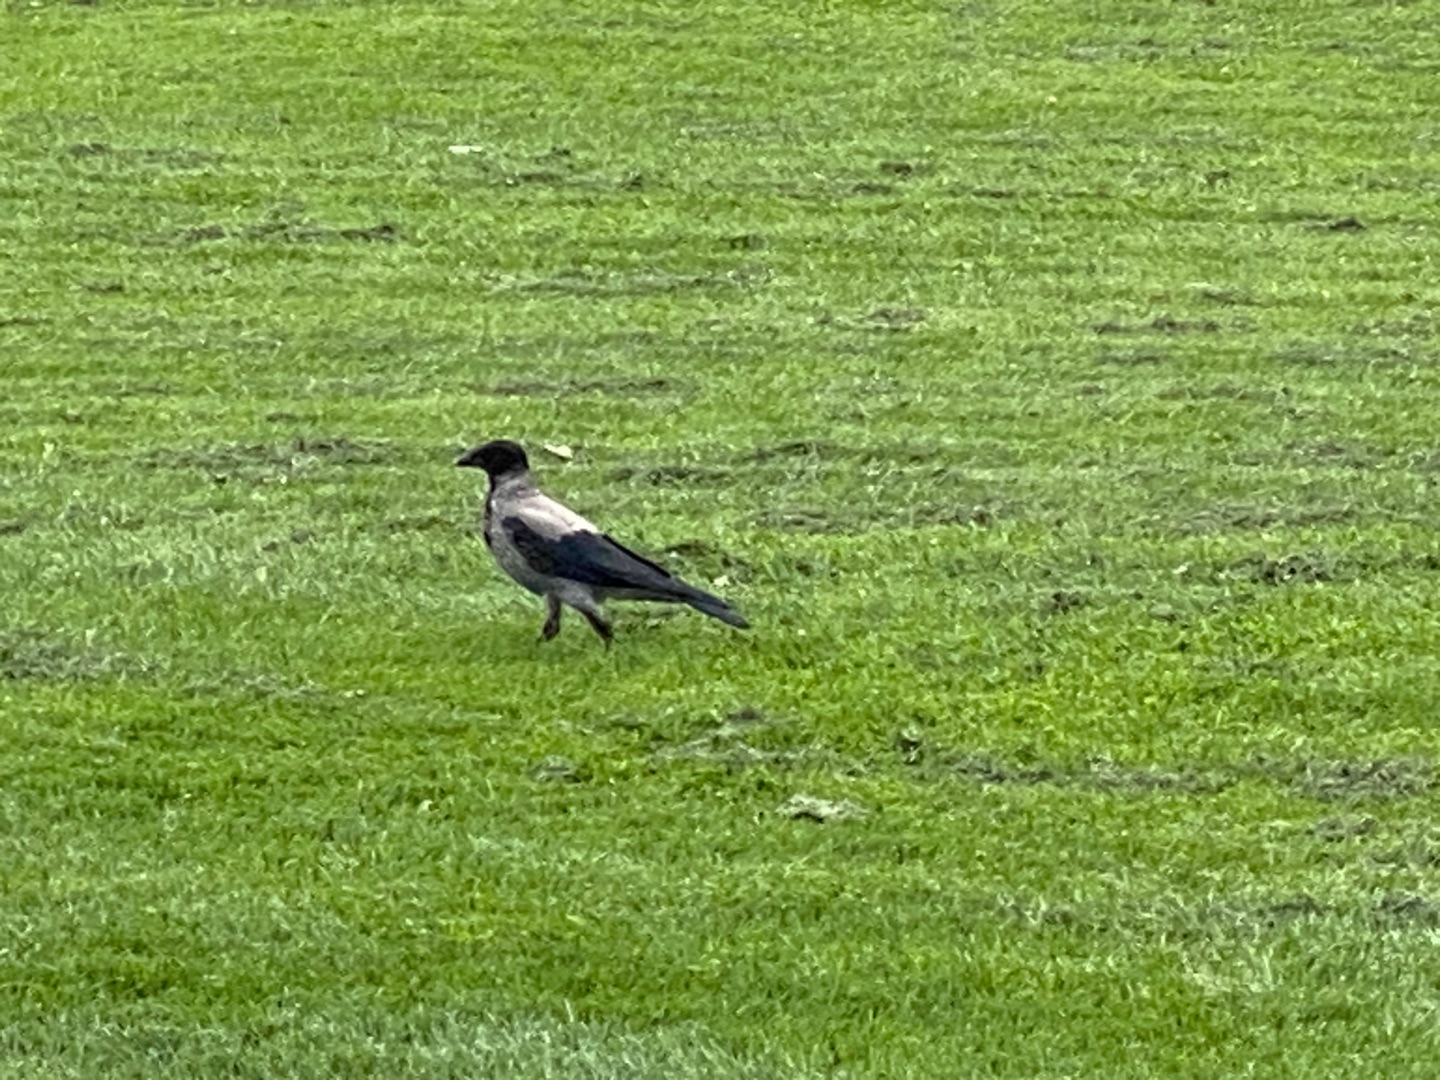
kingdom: Animalia
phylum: Chordata
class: Aves
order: Passeriformes
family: Corvidae
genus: Corvus
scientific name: Corvus cornix
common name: Gråkrage
